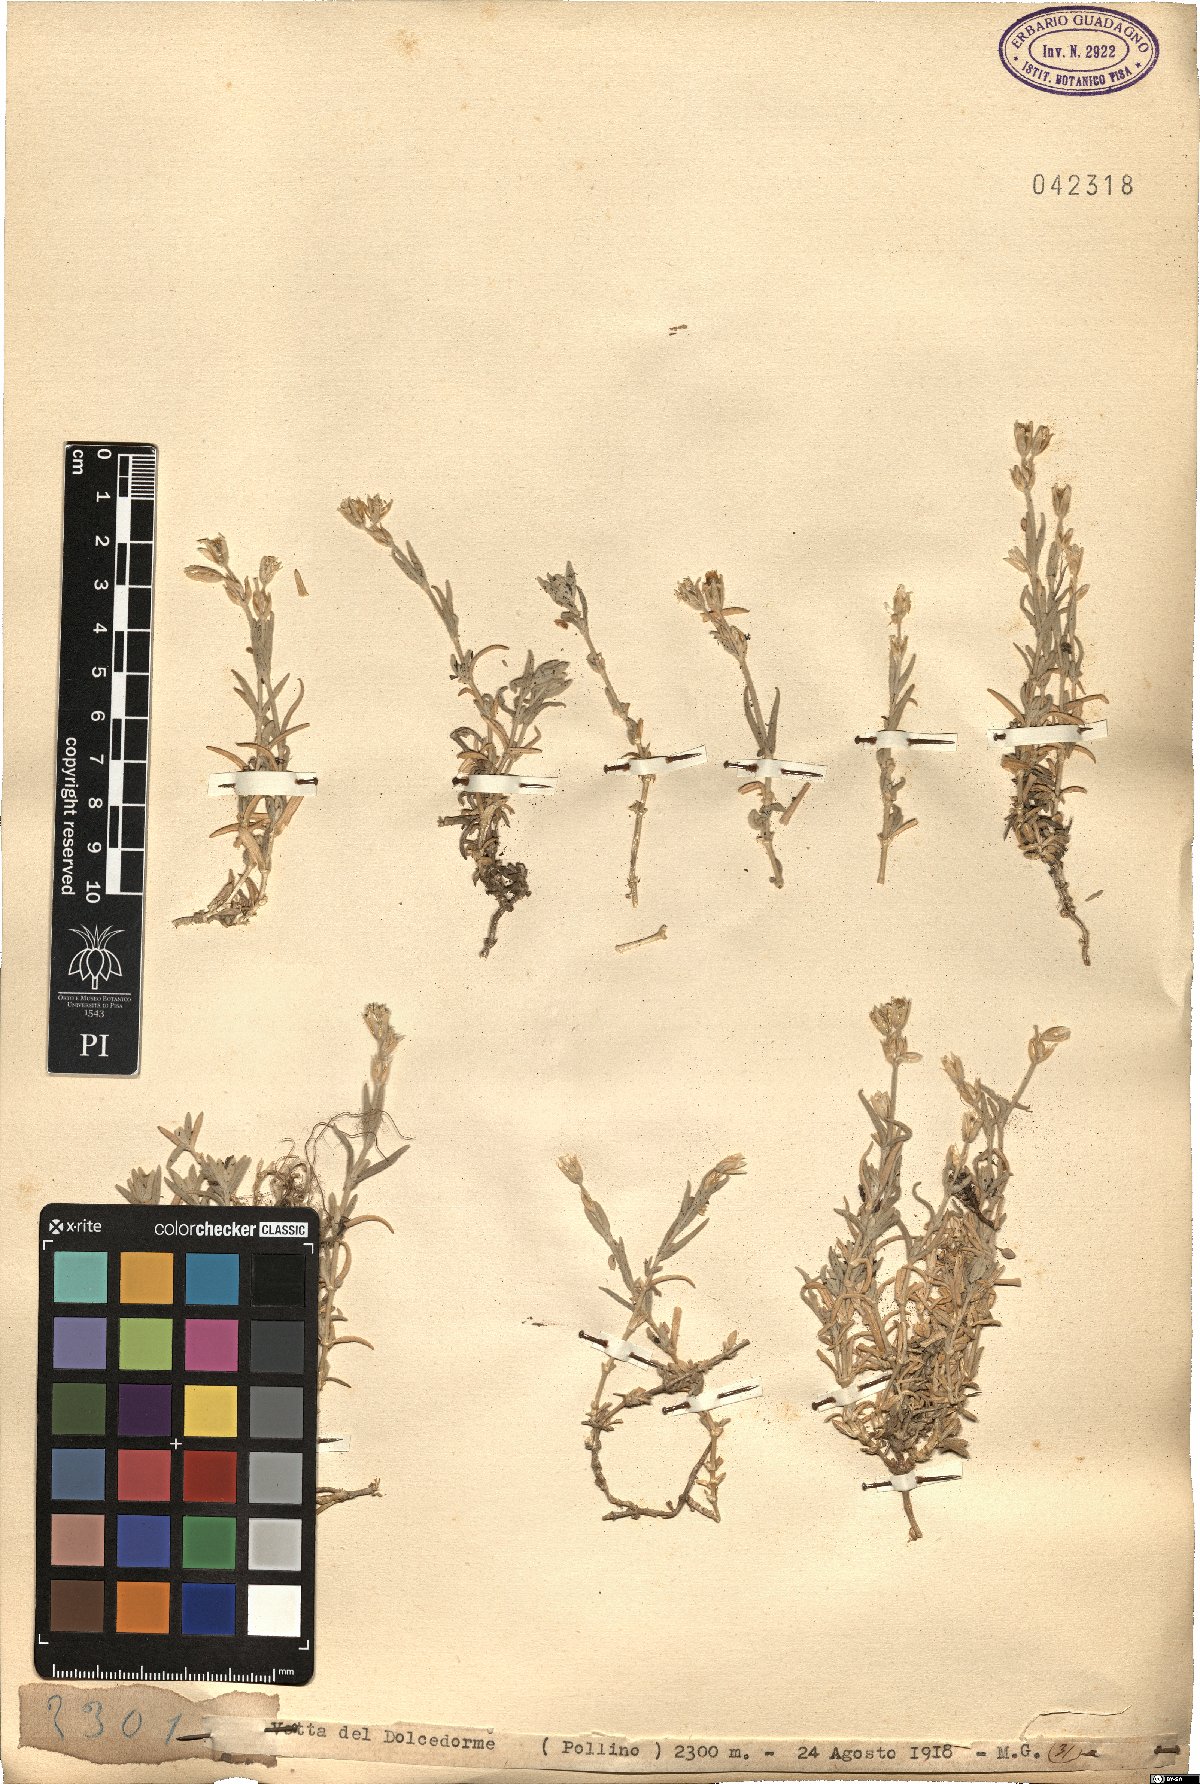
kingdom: Plantae
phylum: Tracheophyta
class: Magnoliopsida
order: Caryophyllales
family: Caryophyllaceae
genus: Cerastium
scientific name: Cerastium
